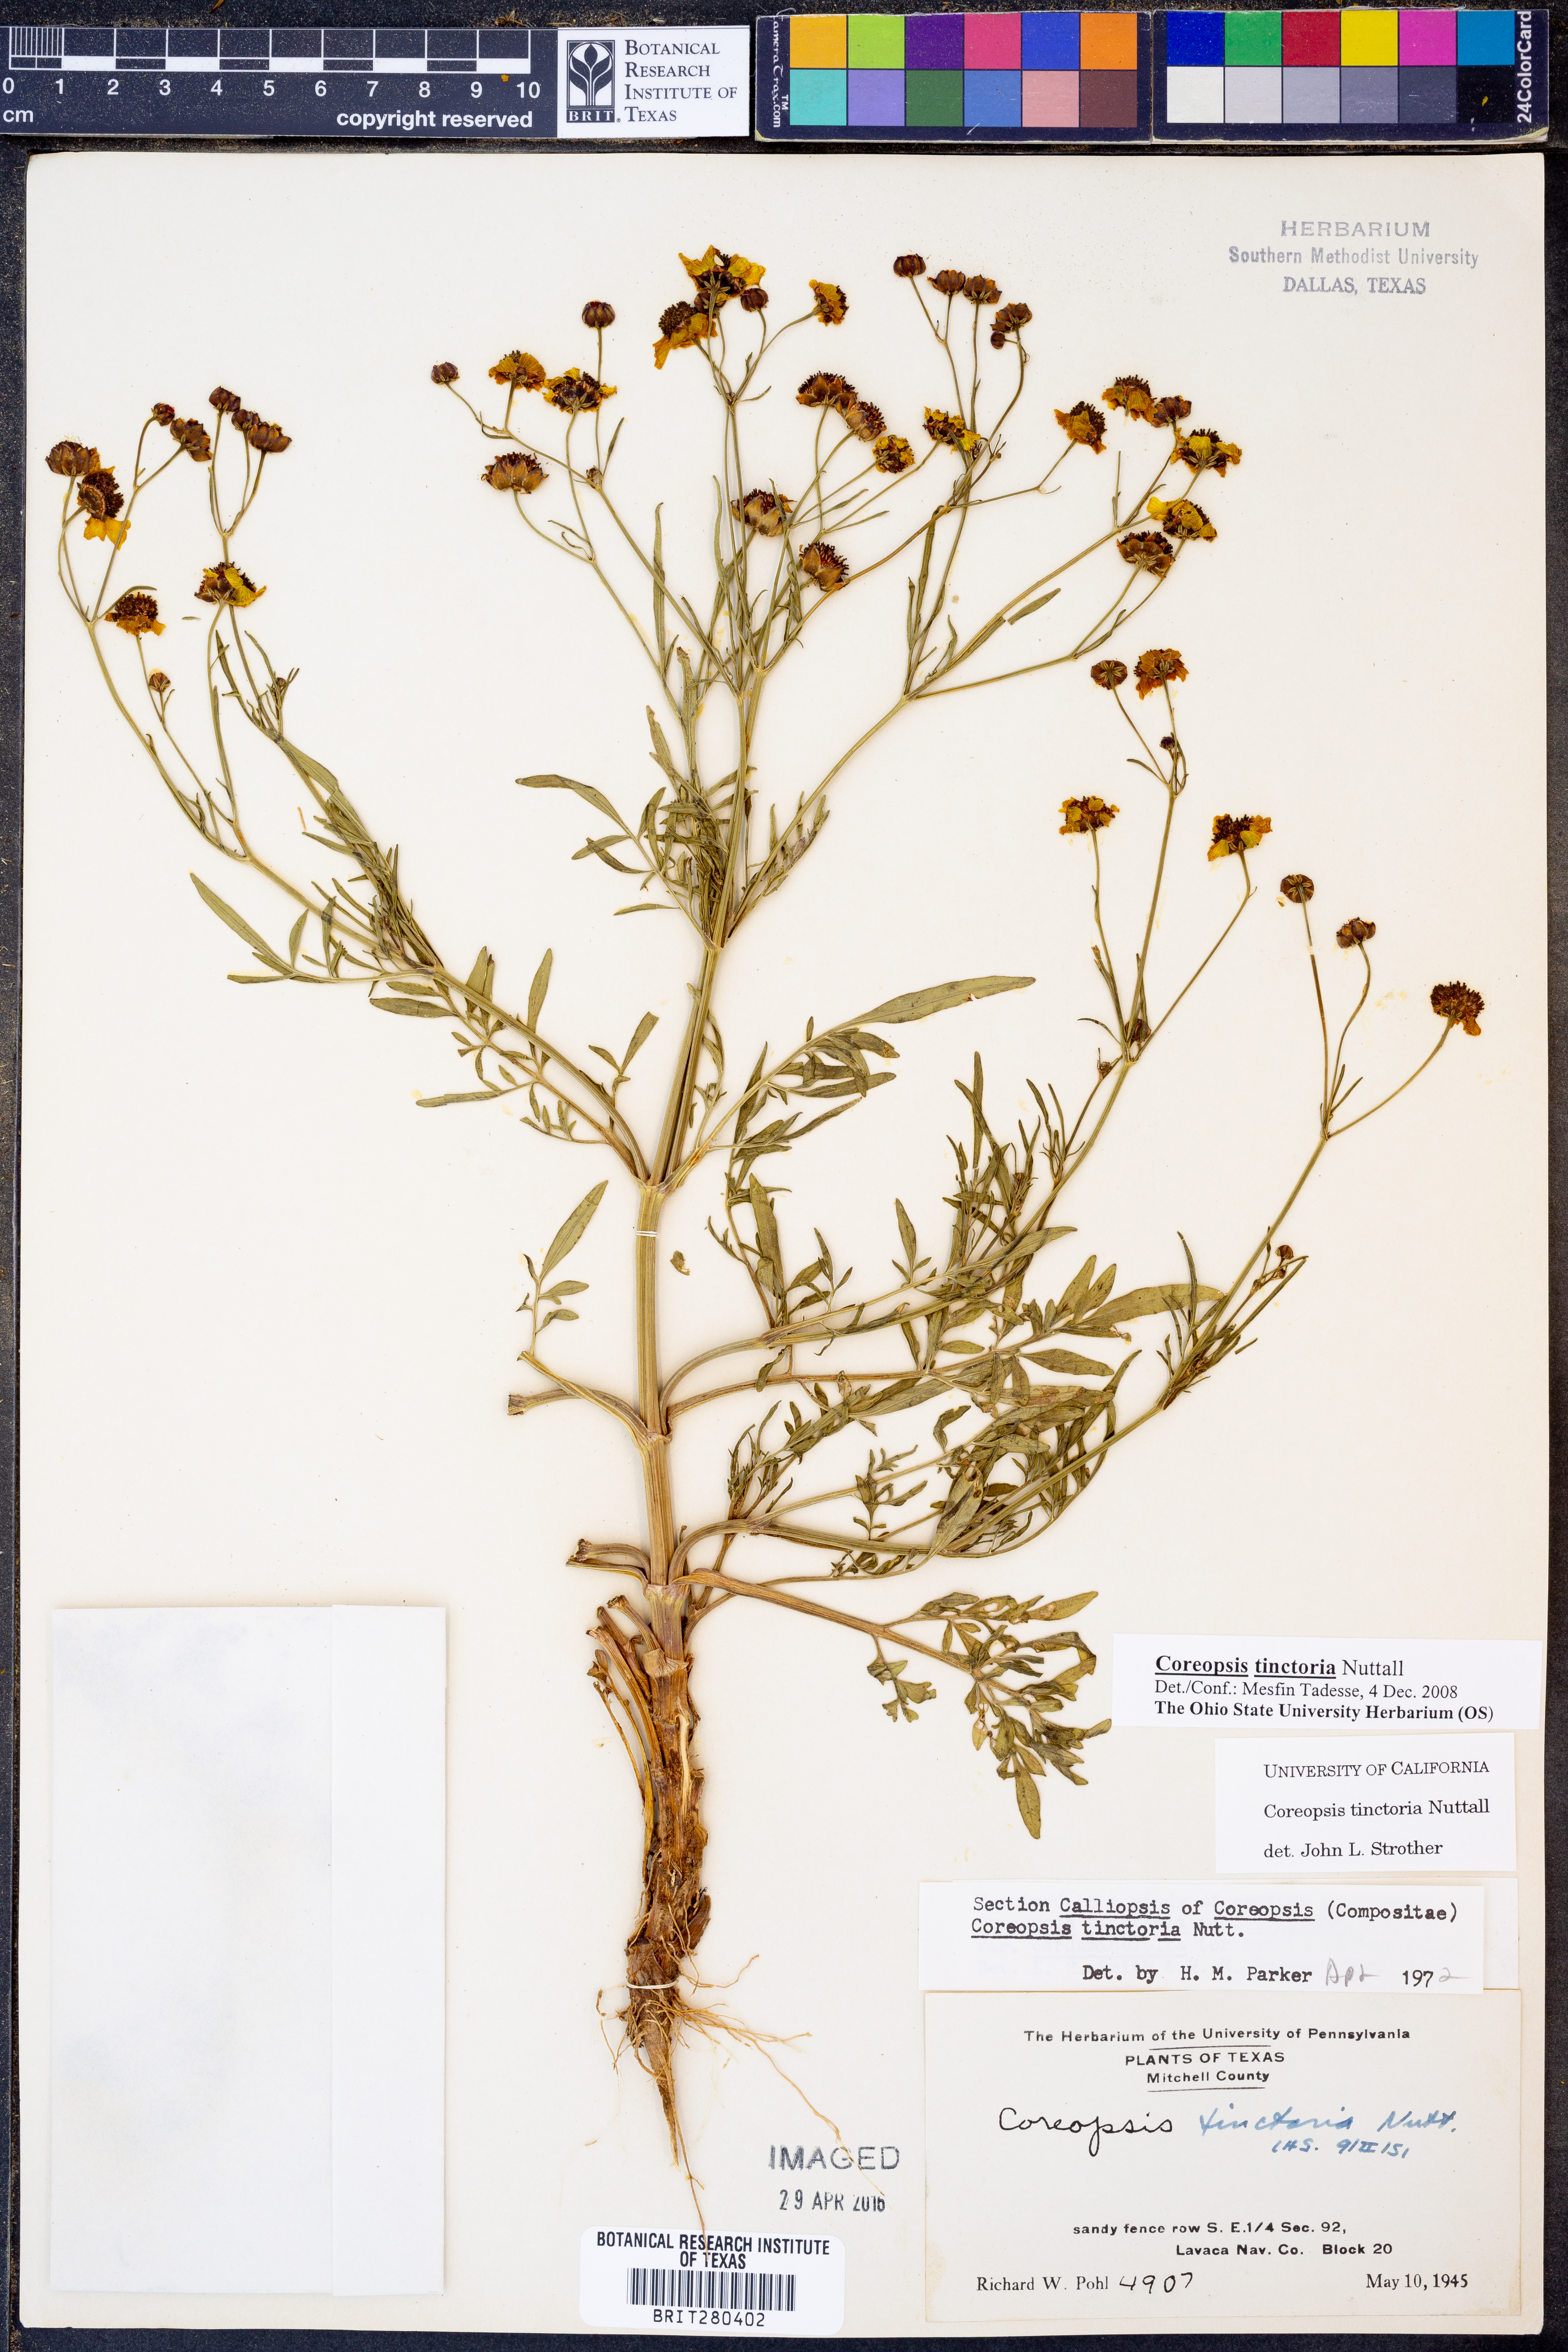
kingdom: Plantae
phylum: Tracheophyta
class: Magnoliopsida
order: Asterales
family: Asteraceae
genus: Coreopsis
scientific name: Coreopsis tinctoria
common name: Garden tickseed
